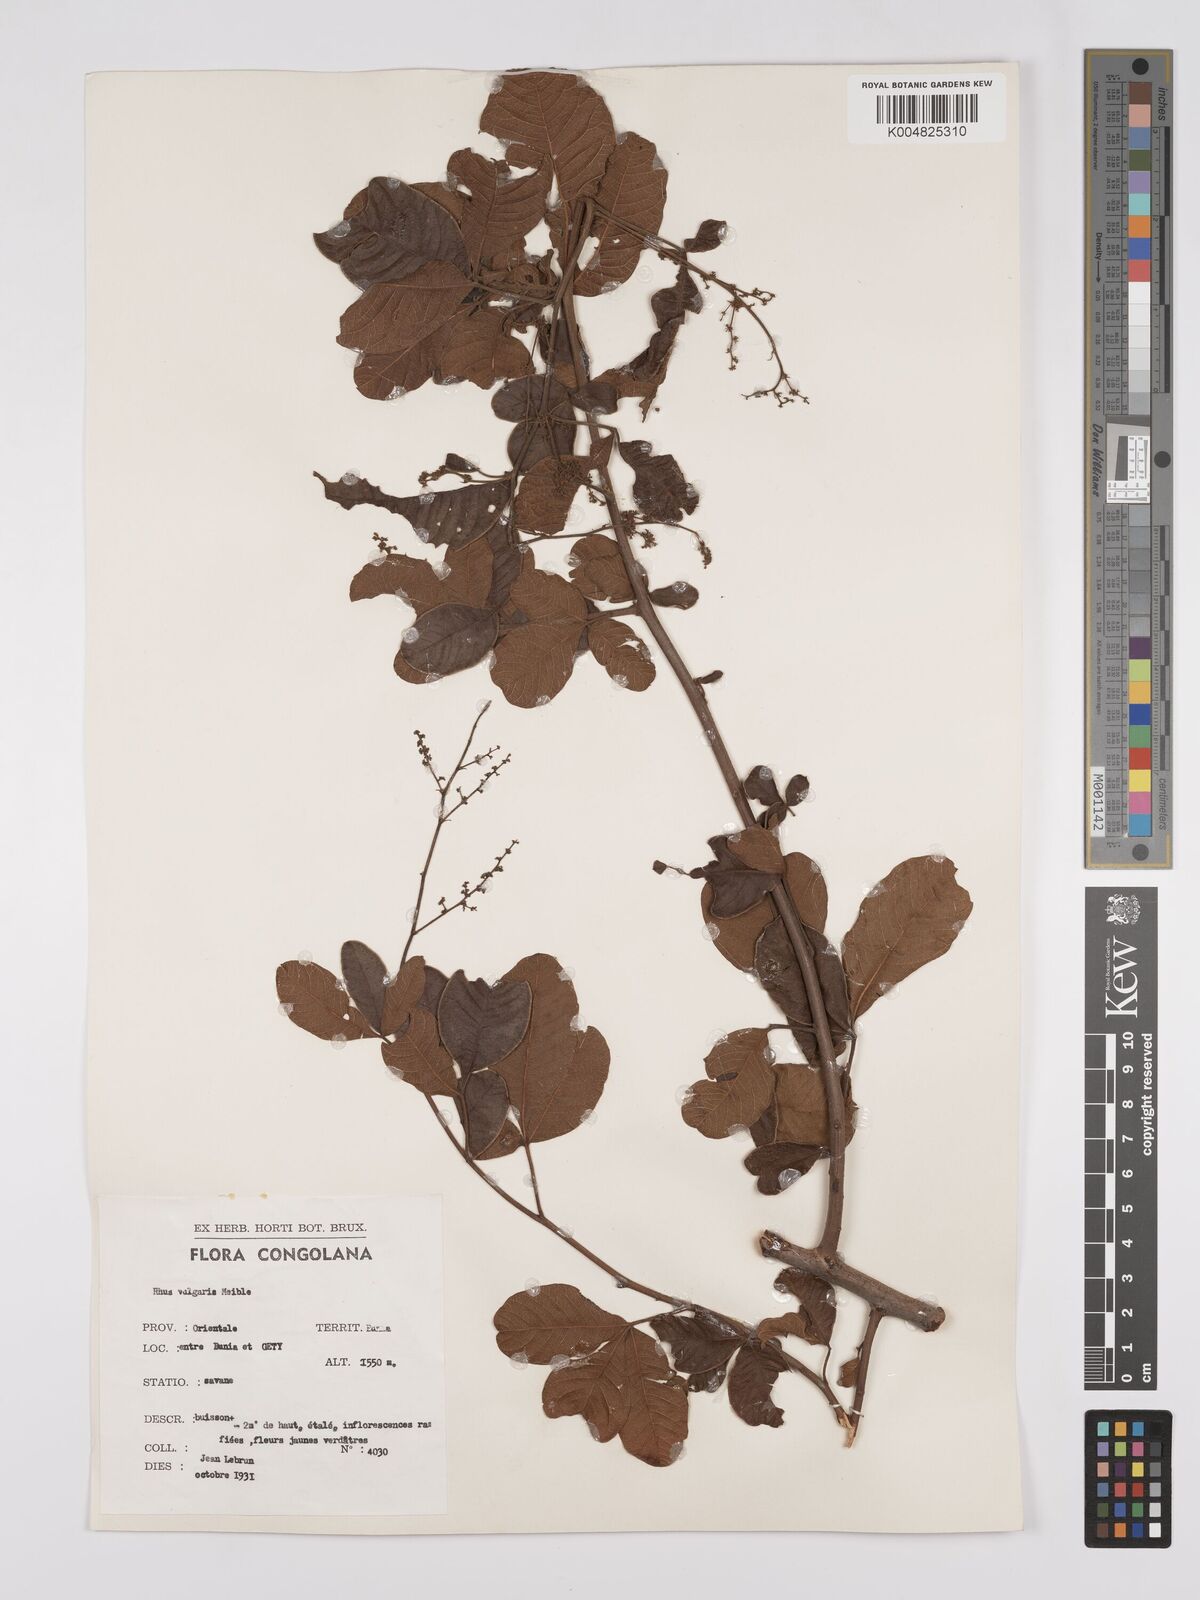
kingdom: Plantae
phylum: Tracheophyta
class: Magnoliopsida
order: Sapindales
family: Anacardiaceae
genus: Searsia
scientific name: Searsia pyroides
